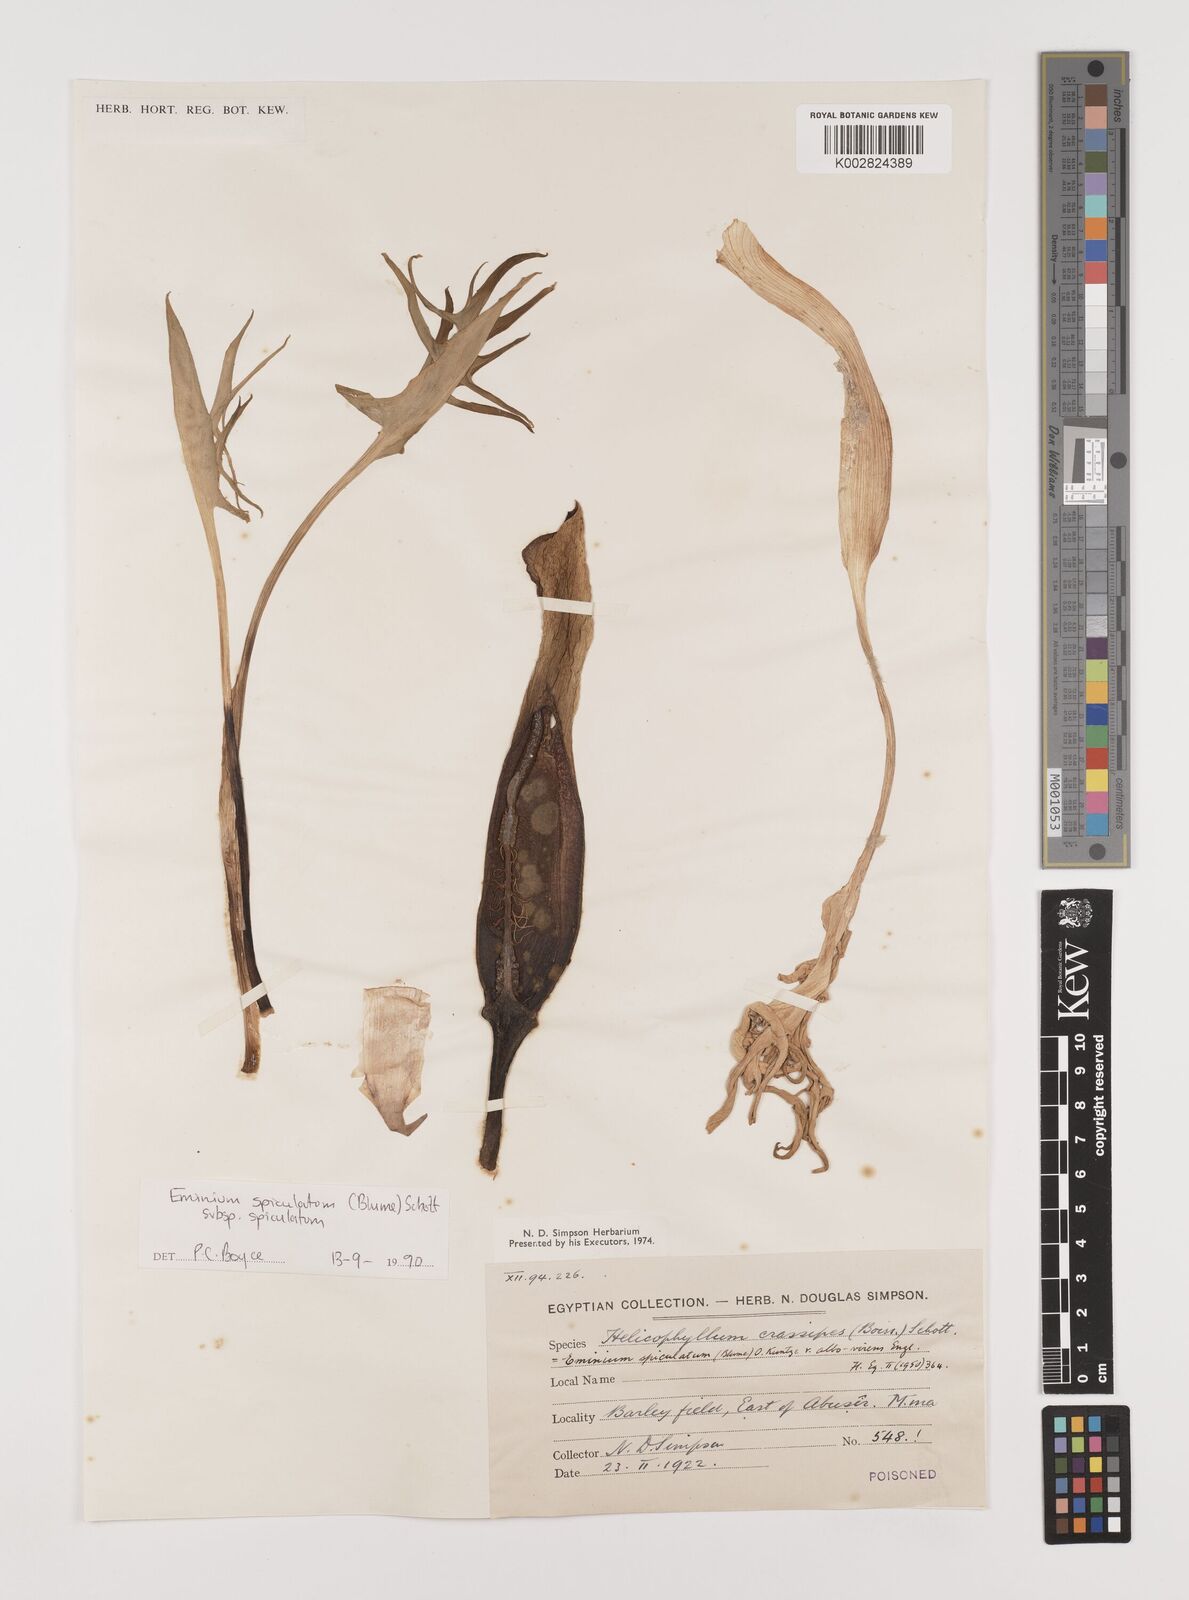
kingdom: Plantae
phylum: Tracheophyta
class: Liliopsida
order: Alismatales
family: Araceae
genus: Eminium
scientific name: Eminium spiculatum
